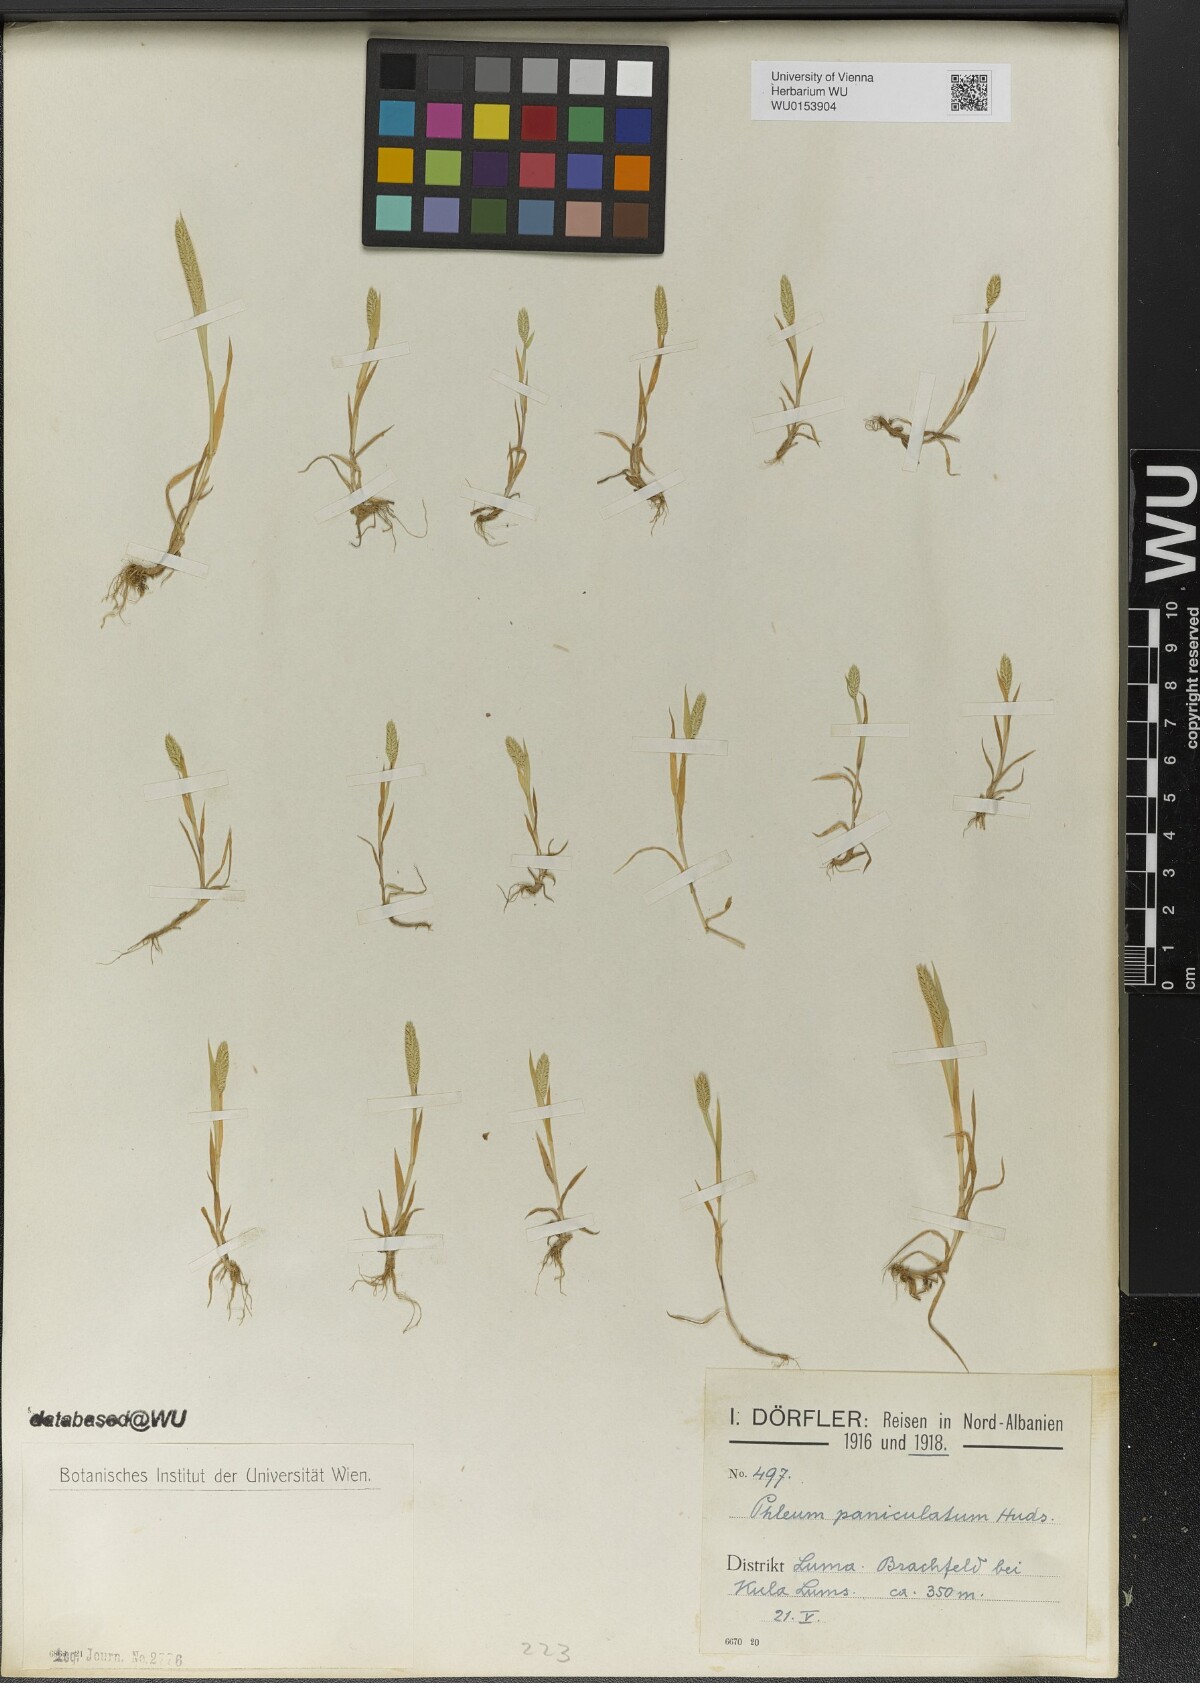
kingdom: Plantae
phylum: Tracheophyta
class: Liliopsida
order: Poales
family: Poaceae
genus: Phleum
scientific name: Phleum paniculatum
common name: British timothy
